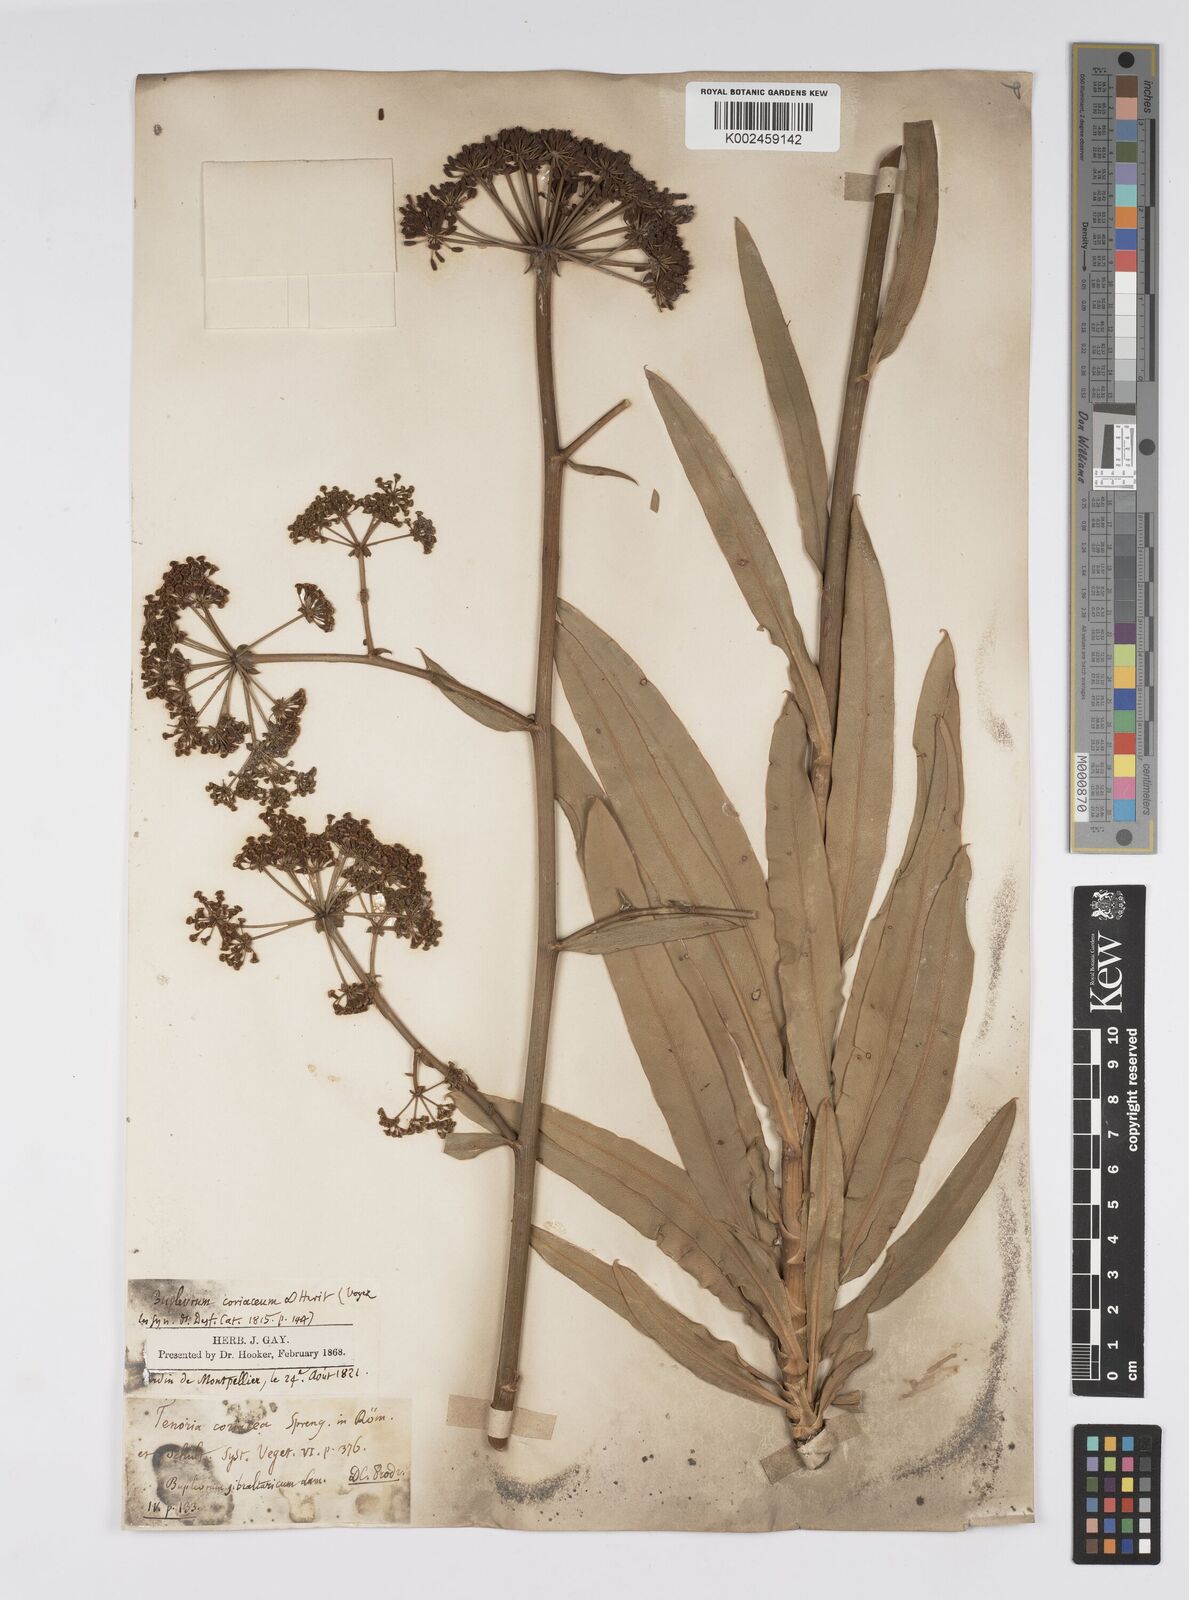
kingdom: Plantae
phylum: Tracheophyta
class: Magnoliopsida
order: Apiales
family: Apiaceae
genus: Bupleurum
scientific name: Bupleurum gibraltaricum
